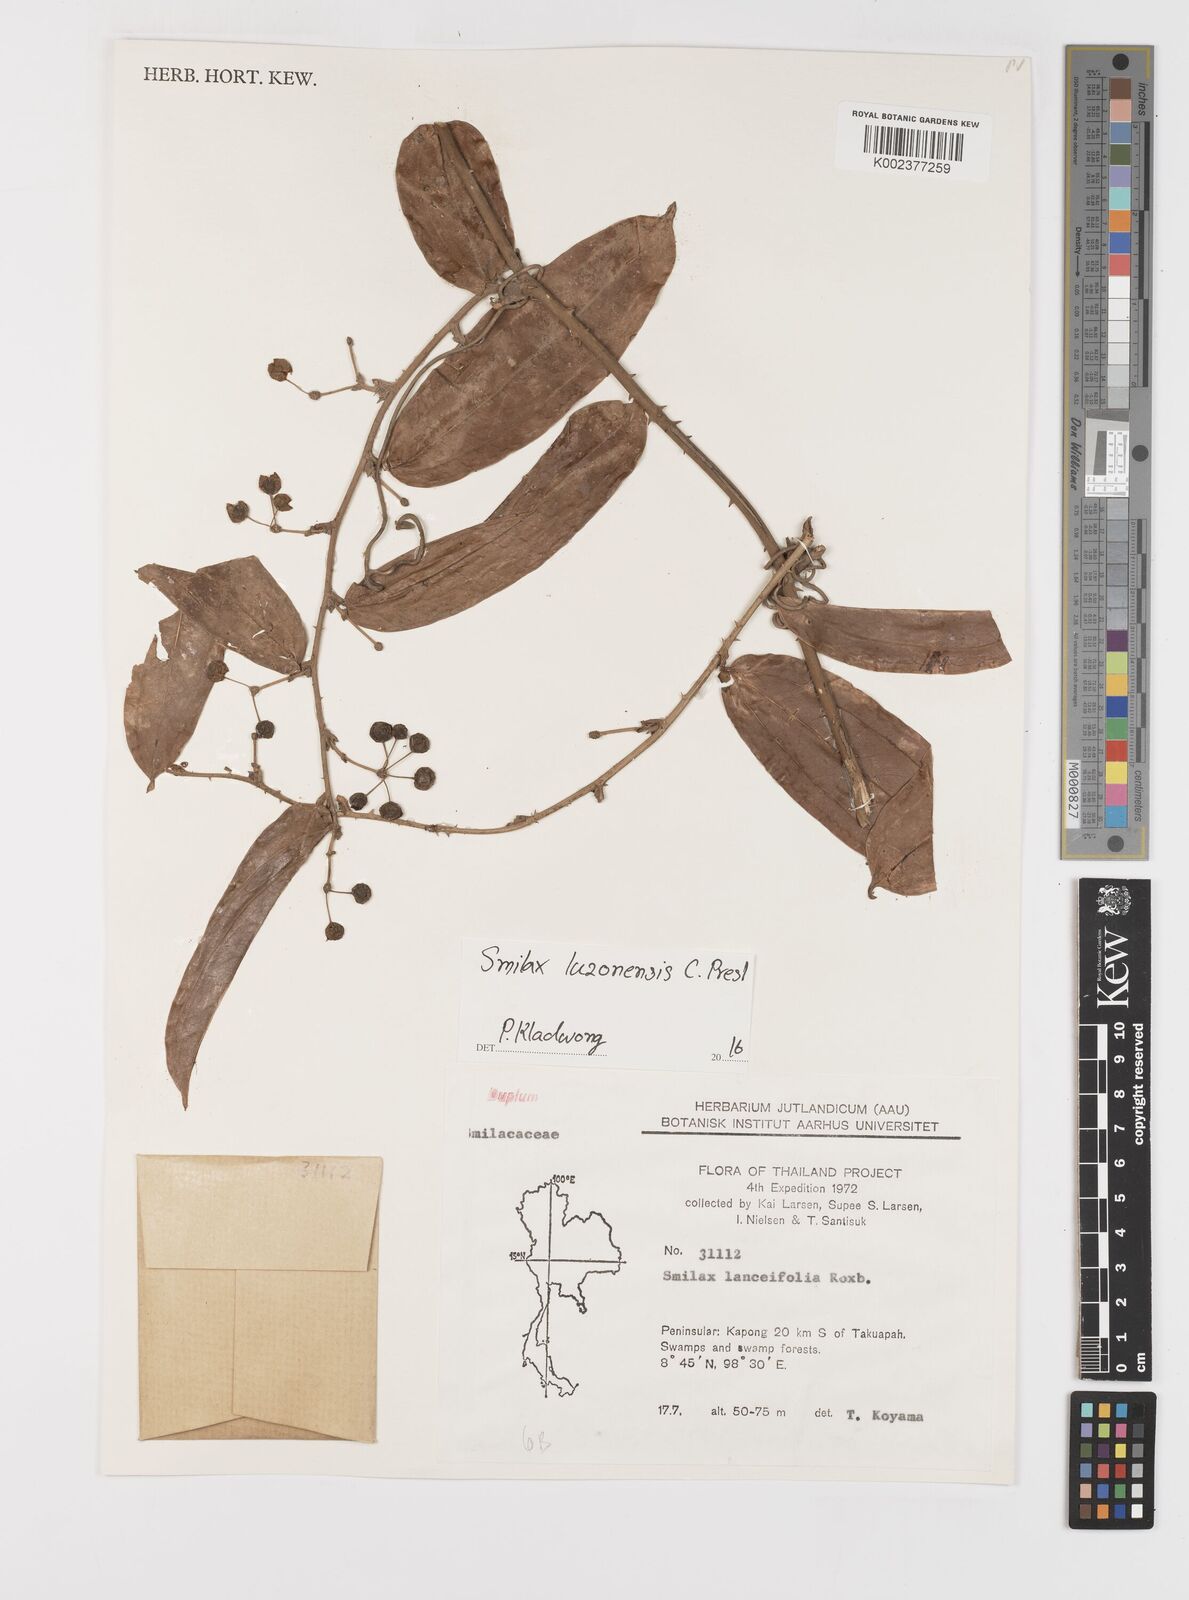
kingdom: Plantae
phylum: Tracheophyta
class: Liliopsida
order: Liliales
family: Smilacaceae
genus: Smilax
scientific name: Smilax luzonensis
